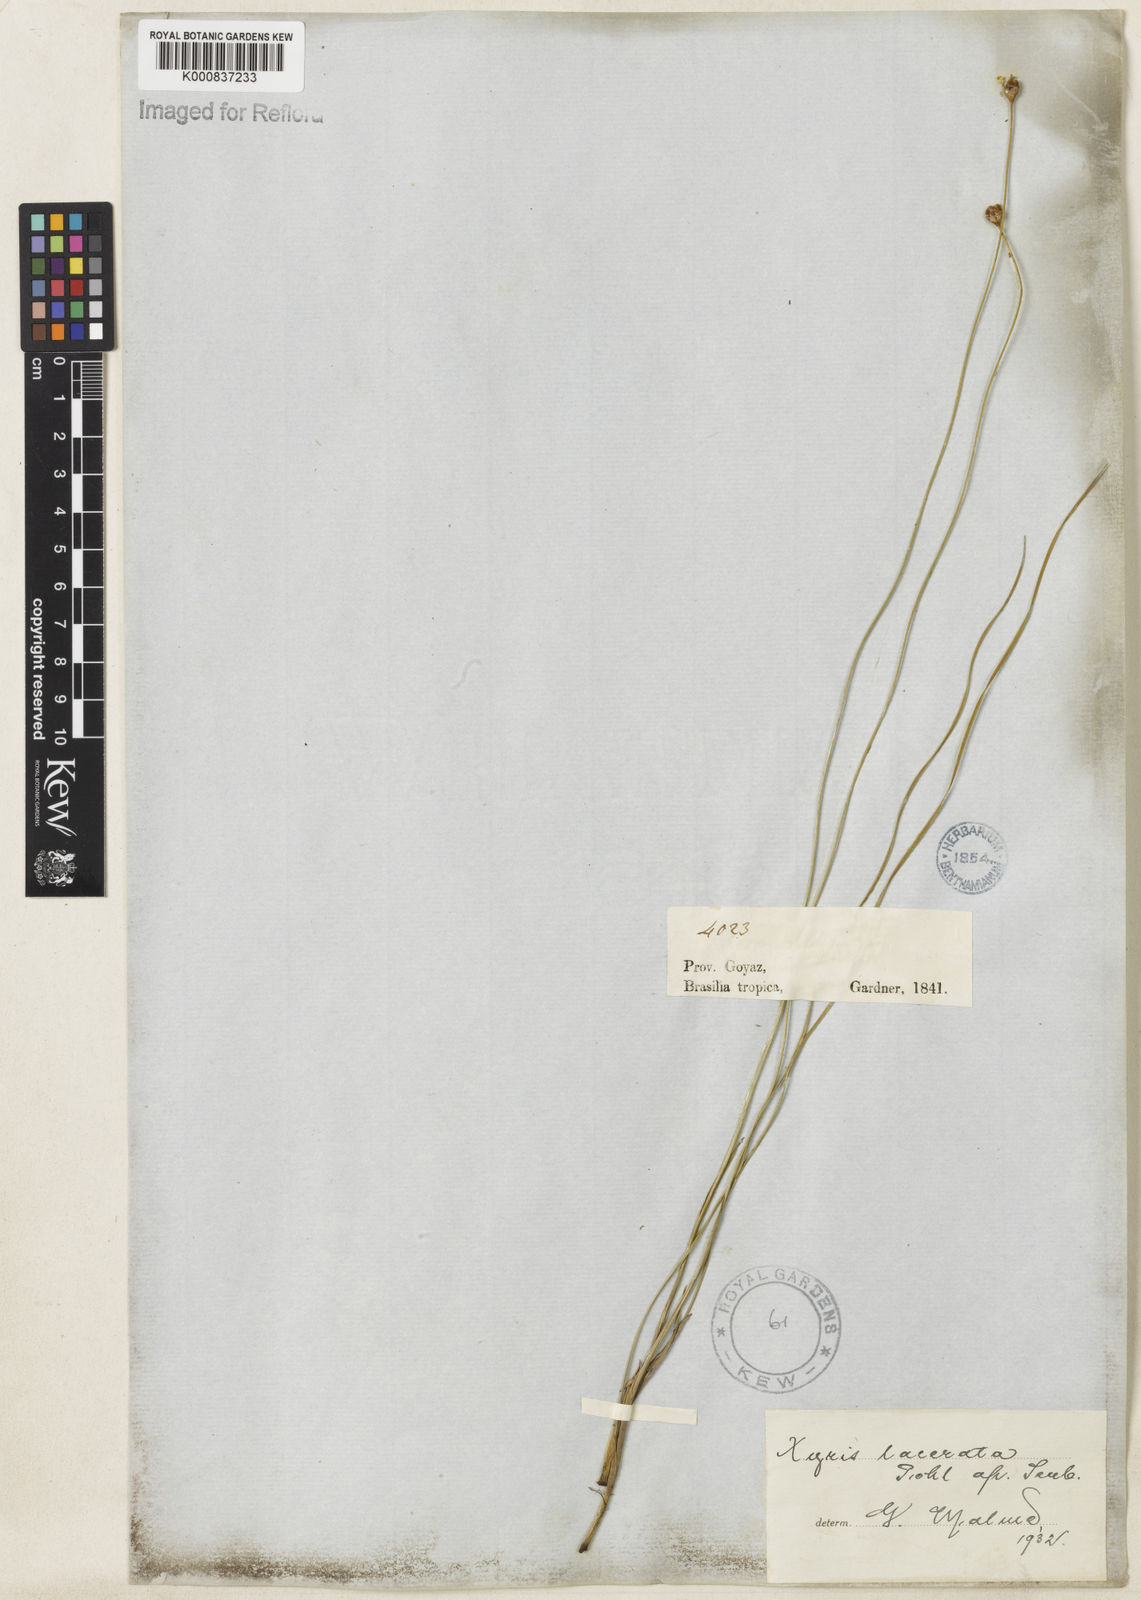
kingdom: Plantae
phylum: Tracheophyta
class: Liliopsida
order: Poales
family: Xyridaceae
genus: Xyris
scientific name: Xyris lacerata
